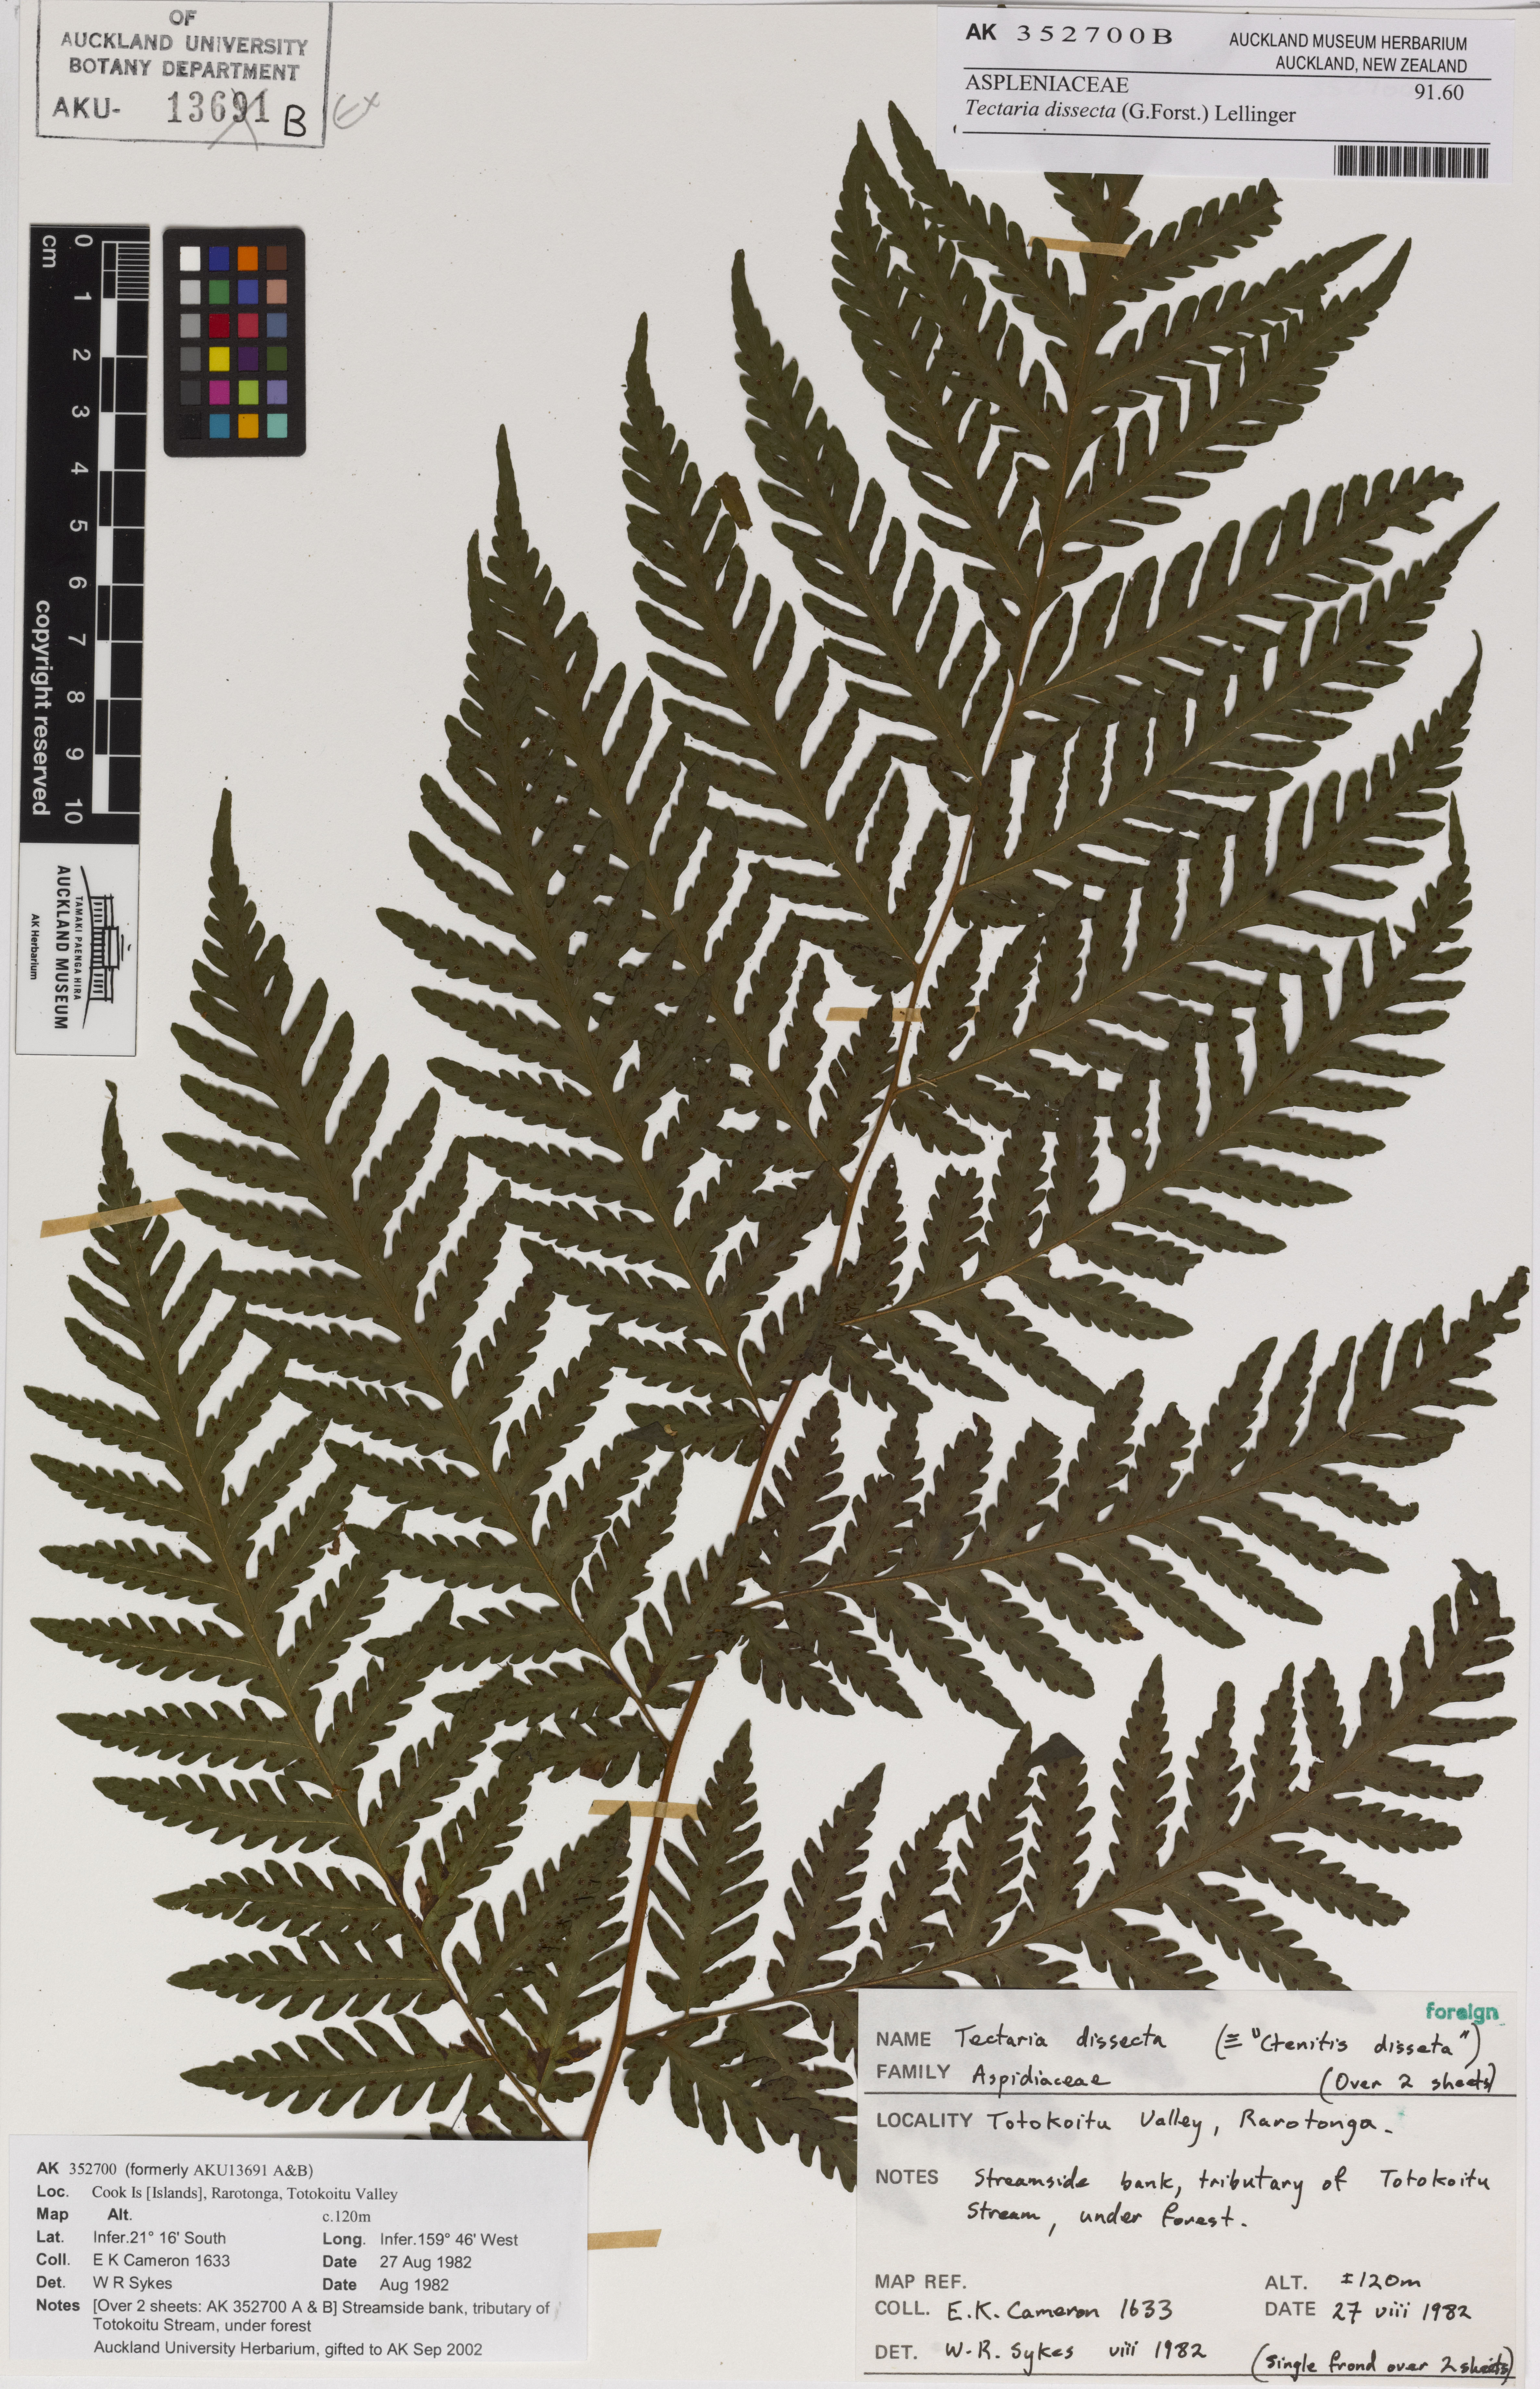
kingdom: Plantae
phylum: Tracheophyta
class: Polypodiopsida
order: Polypodiales
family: Tectariaceae
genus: Tectaria
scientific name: Tectaria dissecta
